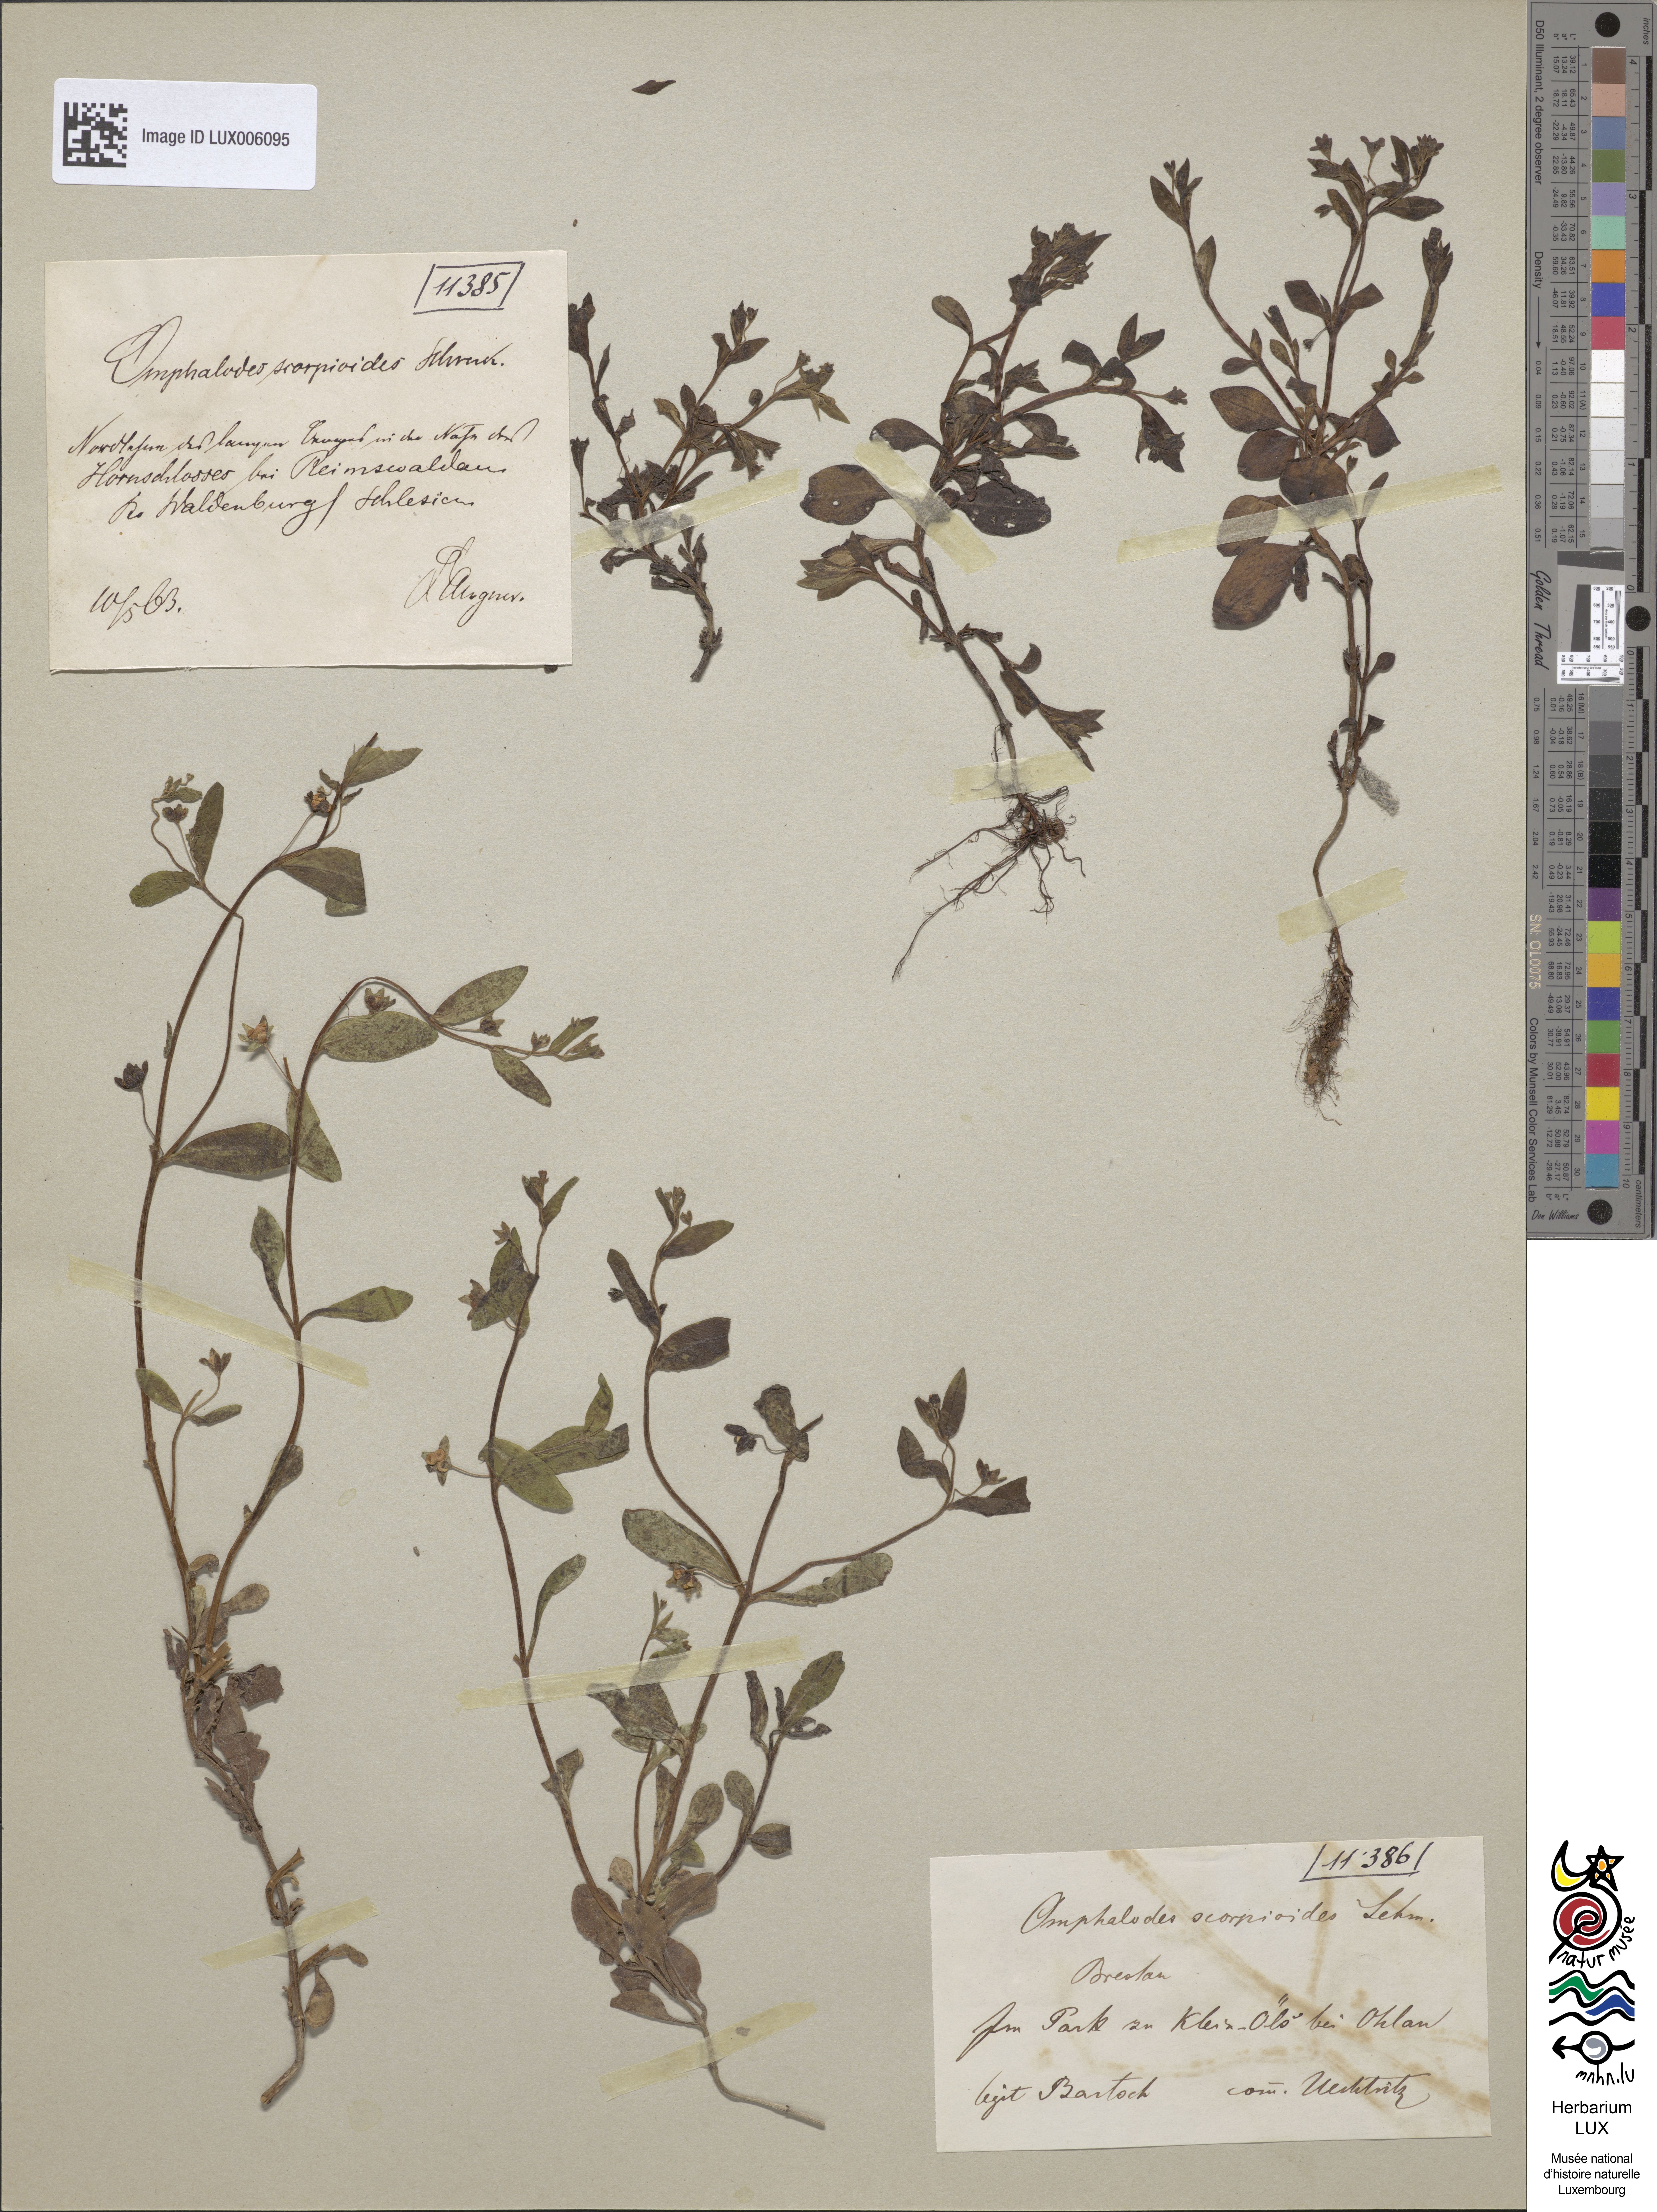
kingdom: Plantae
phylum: Tracheophyta
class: Magnoliopsida
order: Boraginales
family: Boraginaceae
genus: Memoremea
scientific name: Memoremea scorpioides
